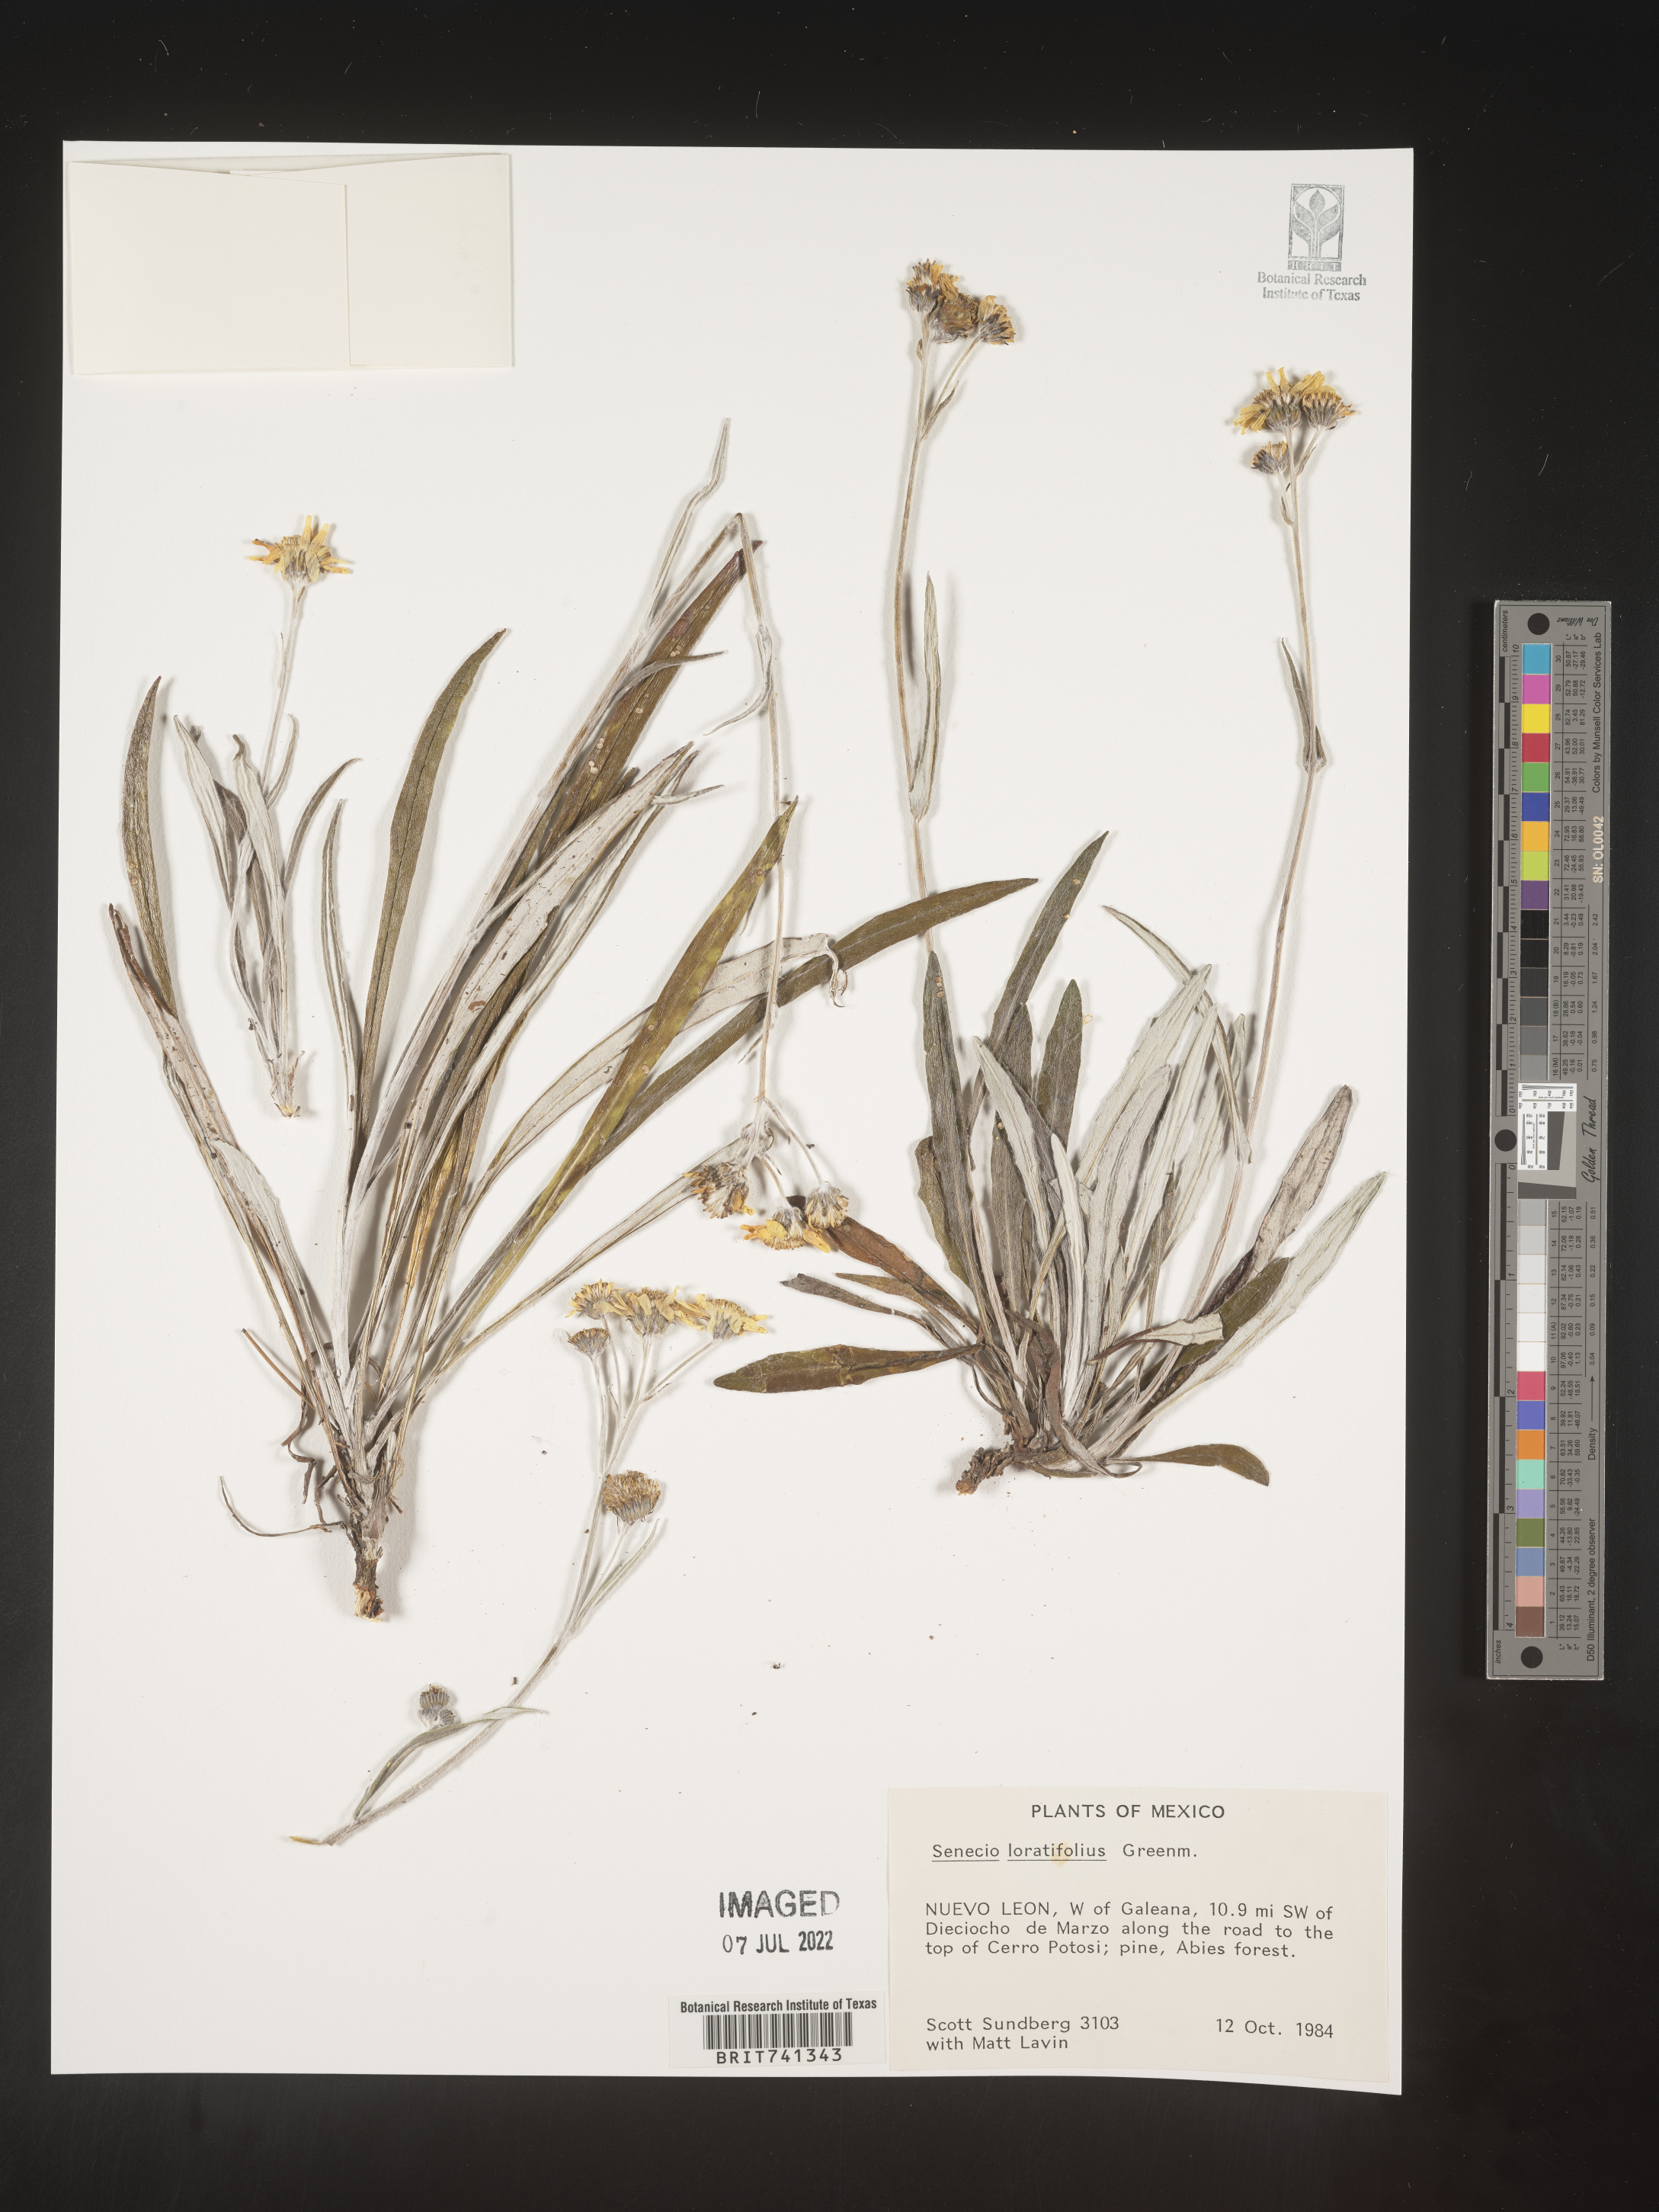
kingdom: Plantae
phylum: Tracheophyta
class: Magnoliopsida
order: Asterales
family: Asteraceae
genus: Packera
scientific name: Packera loratifolia
